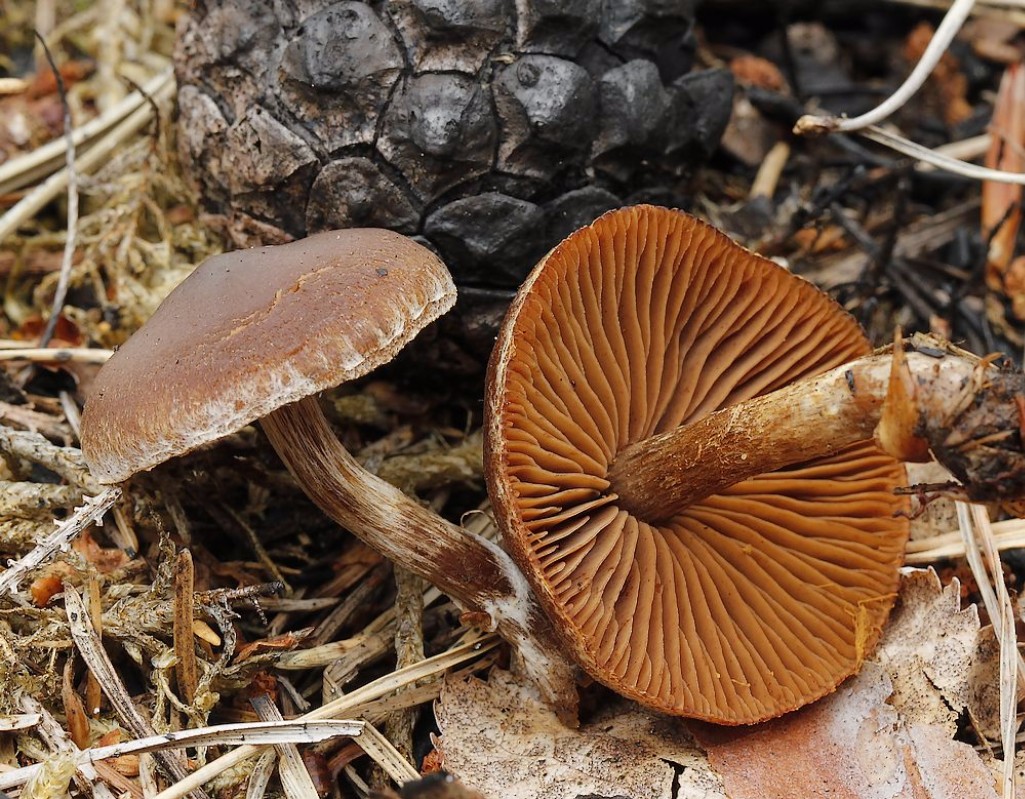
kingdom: Fungi
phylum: Basidiomycota
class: Agaricomycetes
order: Agaricales
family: Cortinariaceae
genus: Cortinarius
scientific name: Cortinarius
